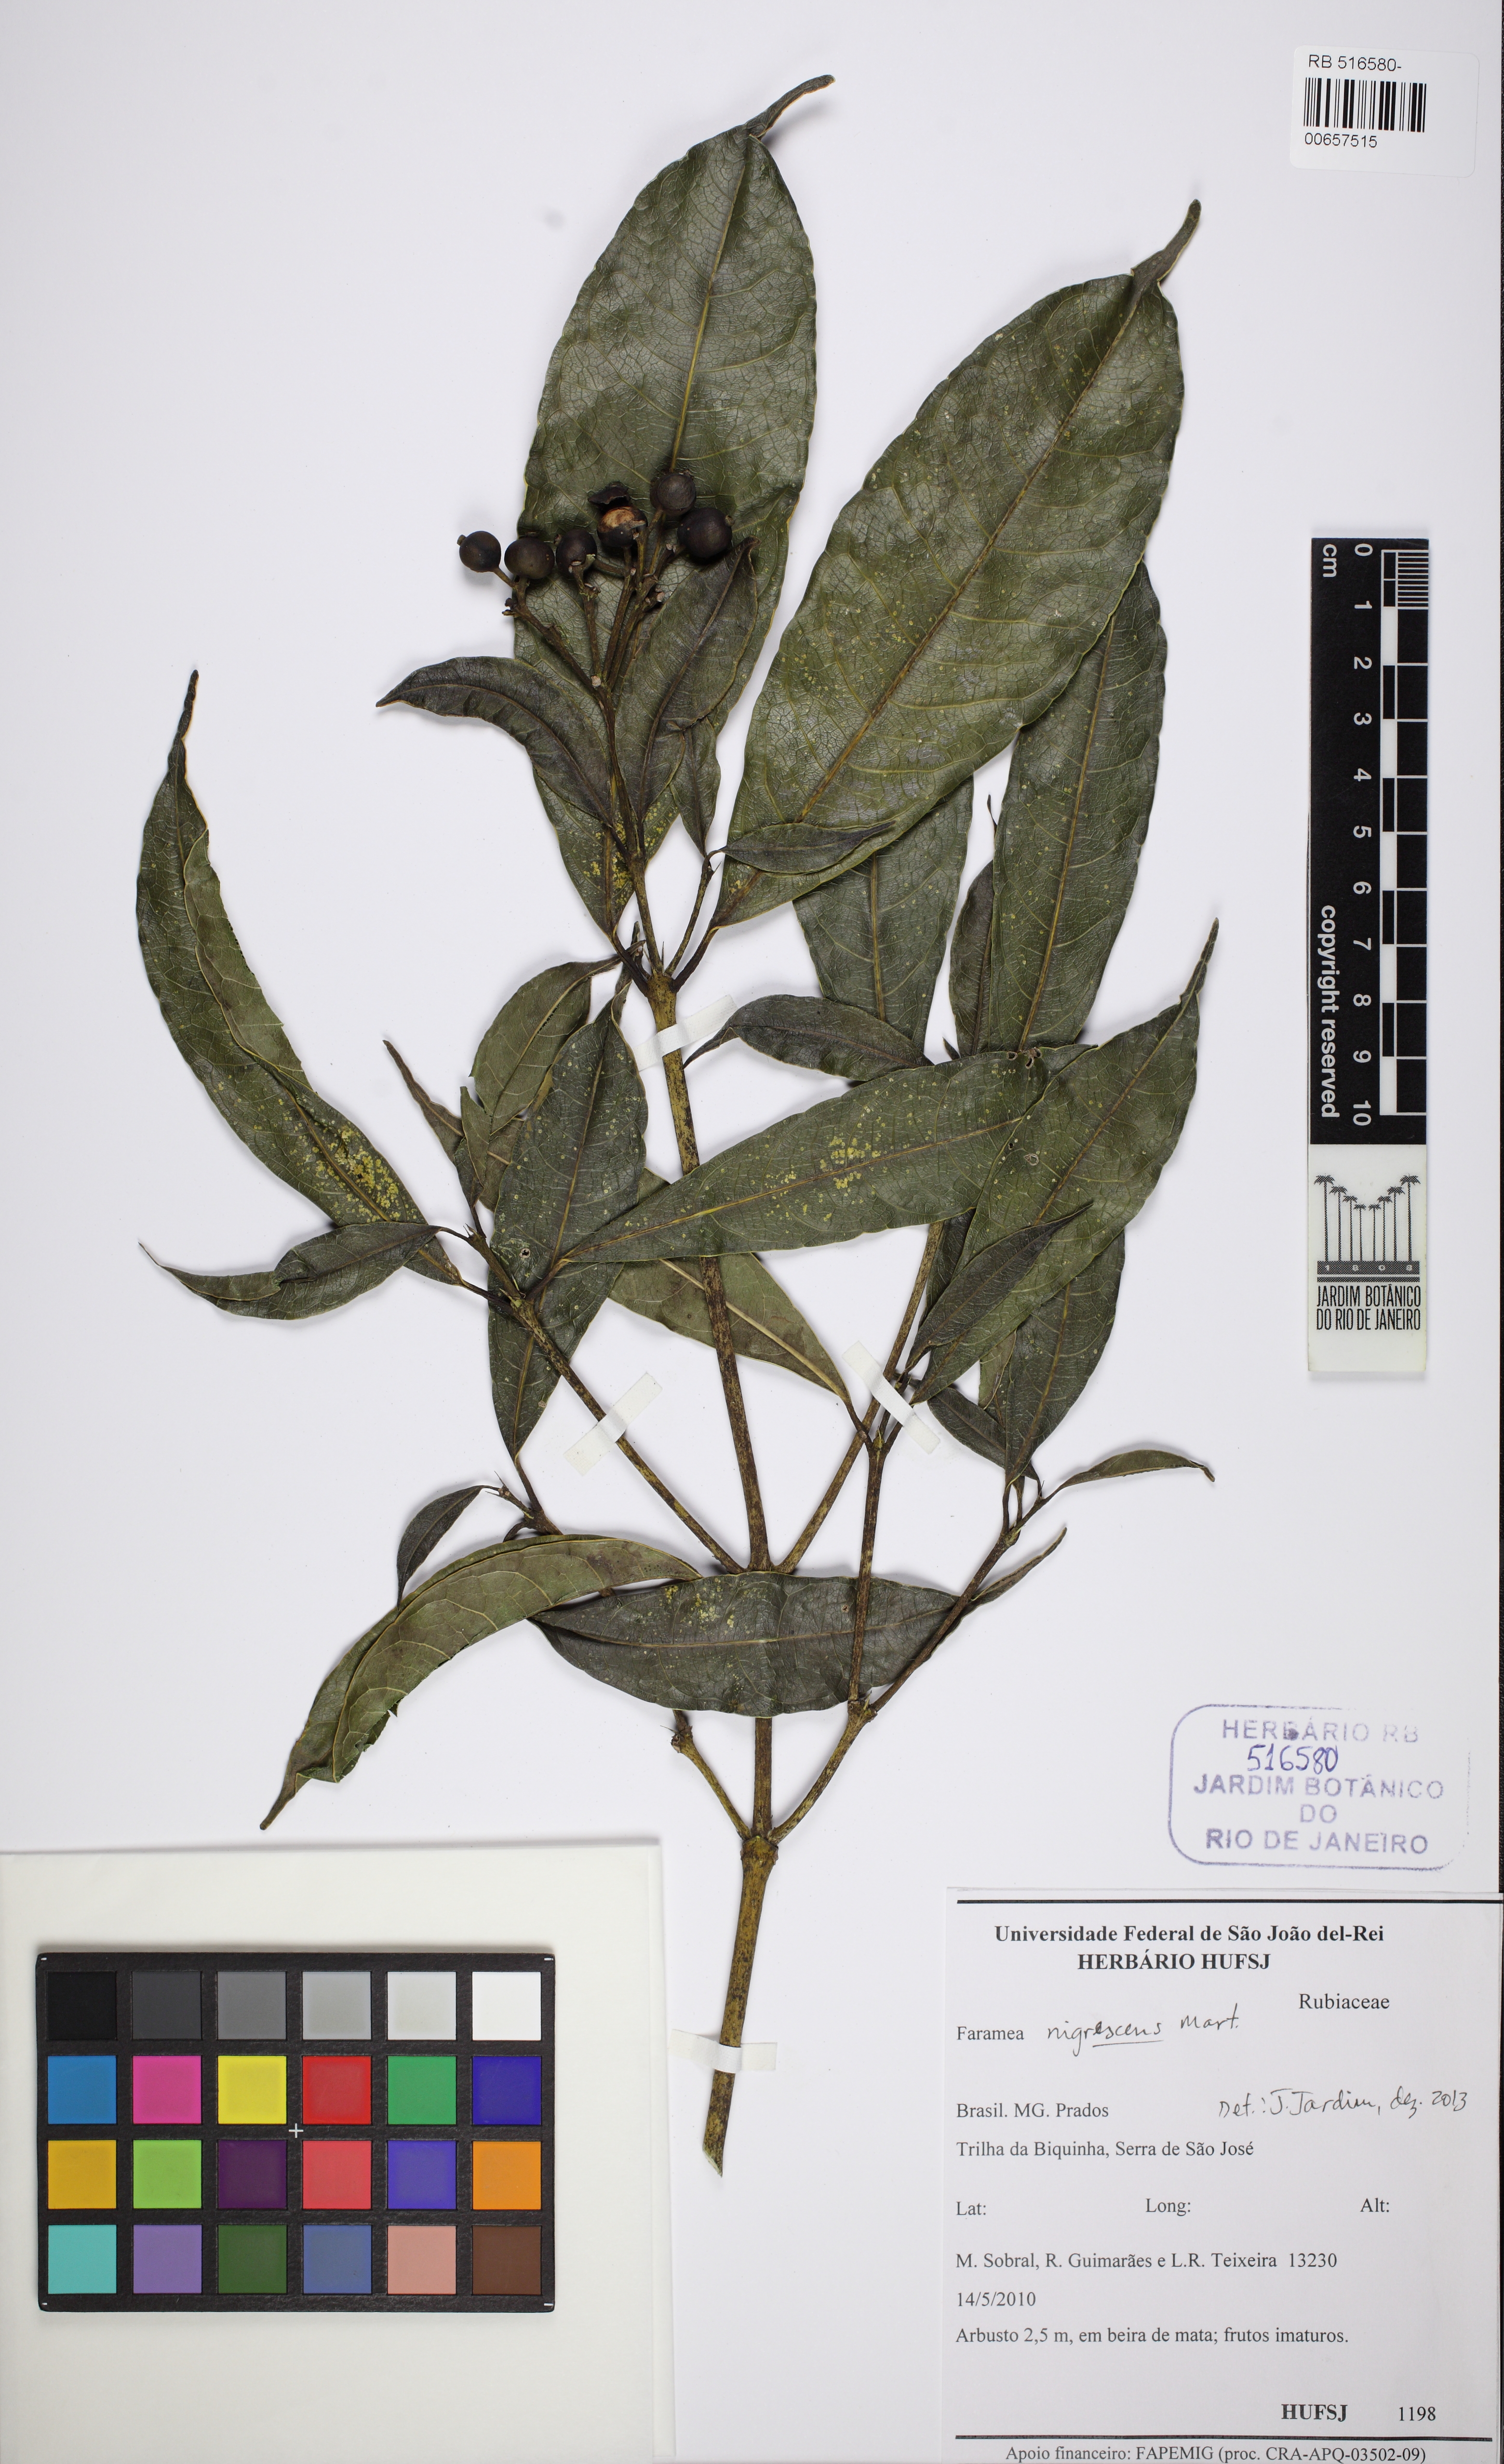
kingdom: Plantae
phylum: Tracheophyta
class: Magnoliopsida
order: Gentianales
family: Rubiaceae
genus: Faramea
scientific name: Faramea nigrescens
